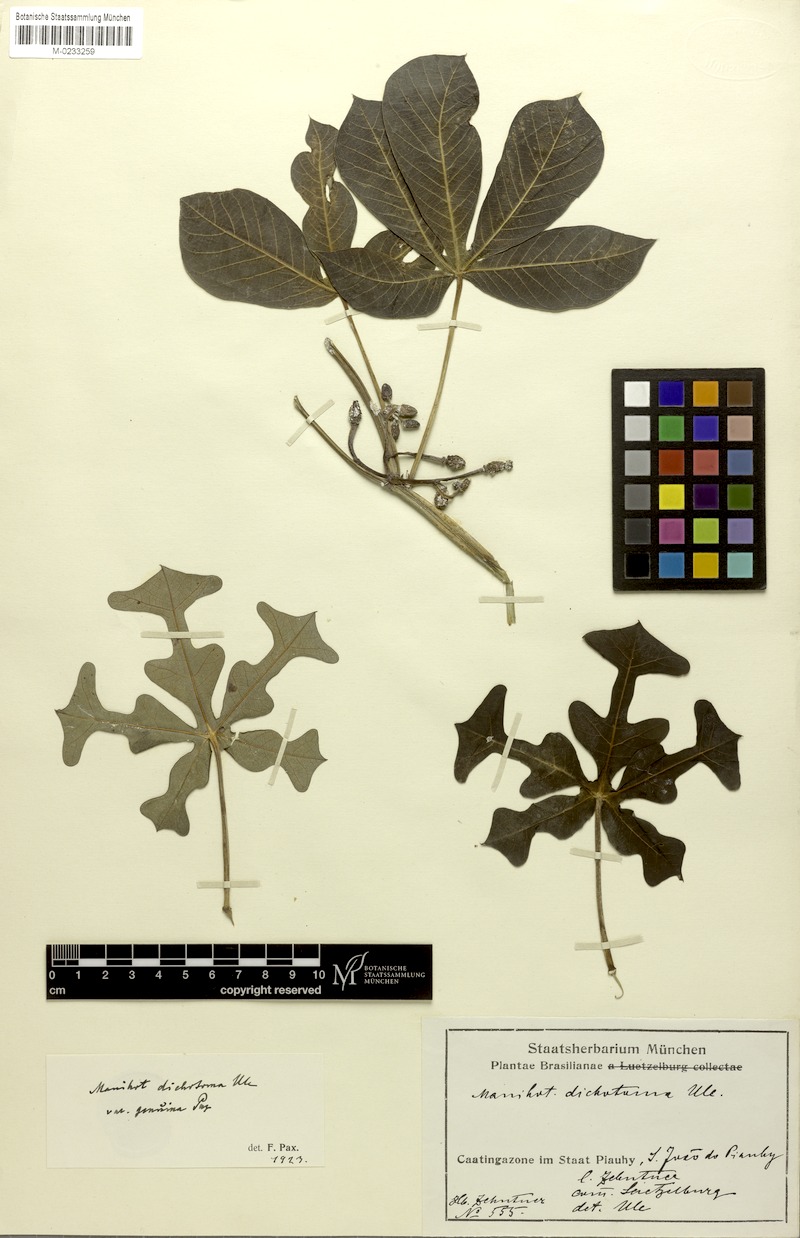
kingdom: Plantae
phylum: Tracheophyta
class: Magnoliopsida
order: Malpighiales
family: Euphorbiaceae
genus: Manihot
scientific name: Manihot dichotoma
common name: Jequie rubber tree
